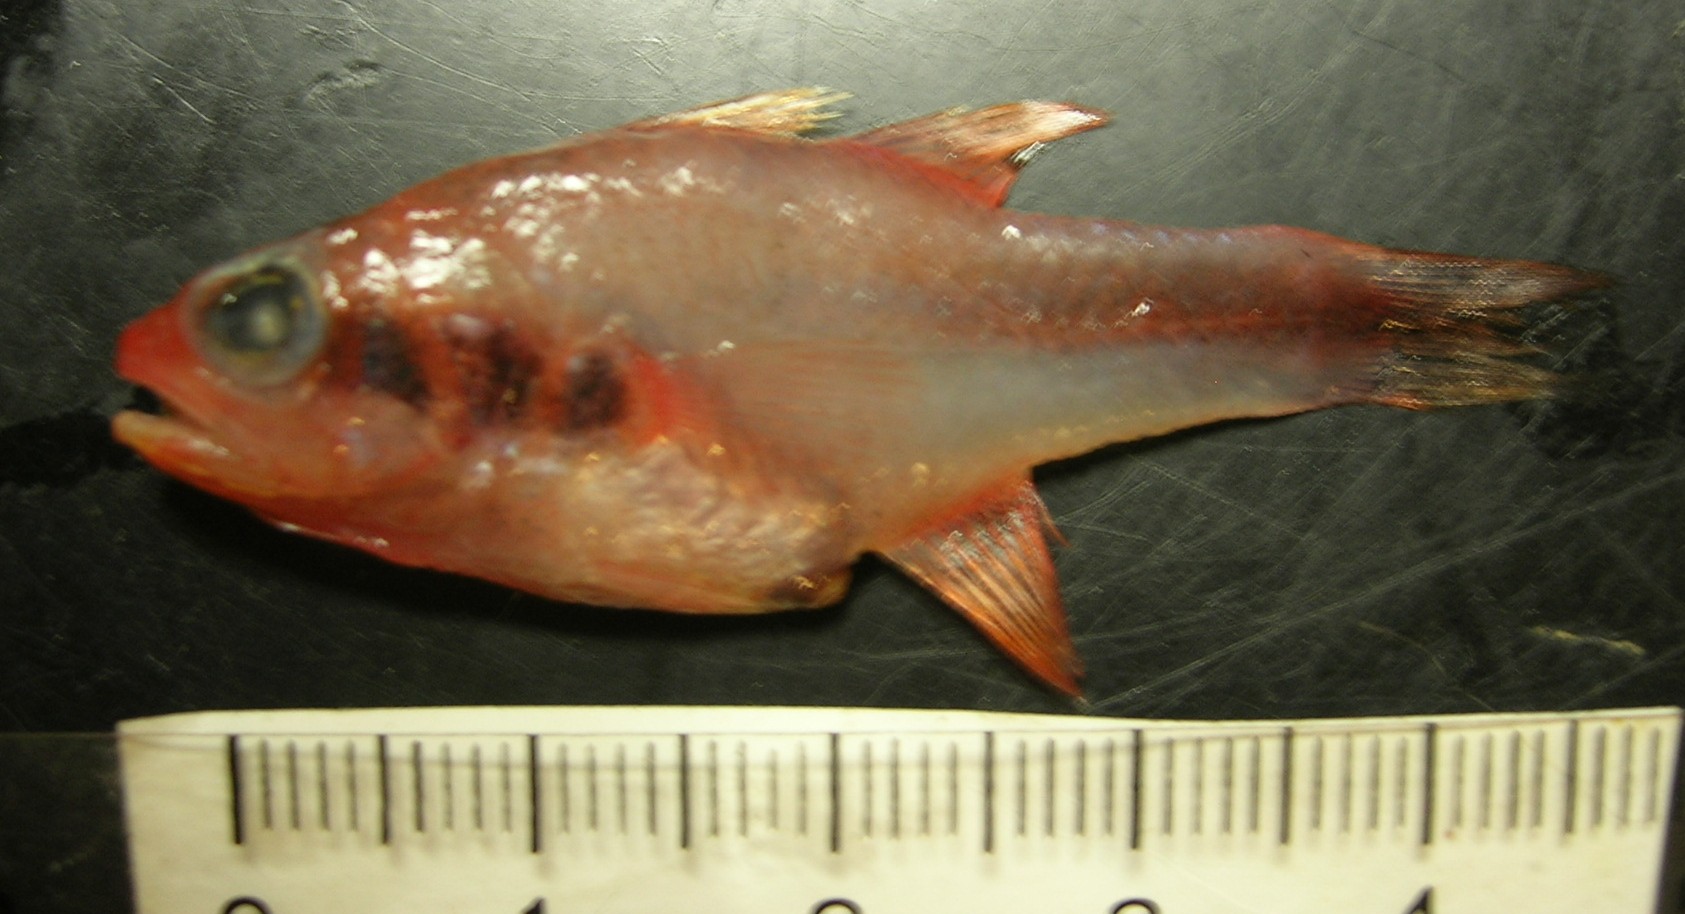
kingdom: Animalia
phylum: Chordata
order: Perciformes
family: Apogonidae
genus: Apogon
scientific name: Apogon semiornatus
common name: Threeband cardinalfish
